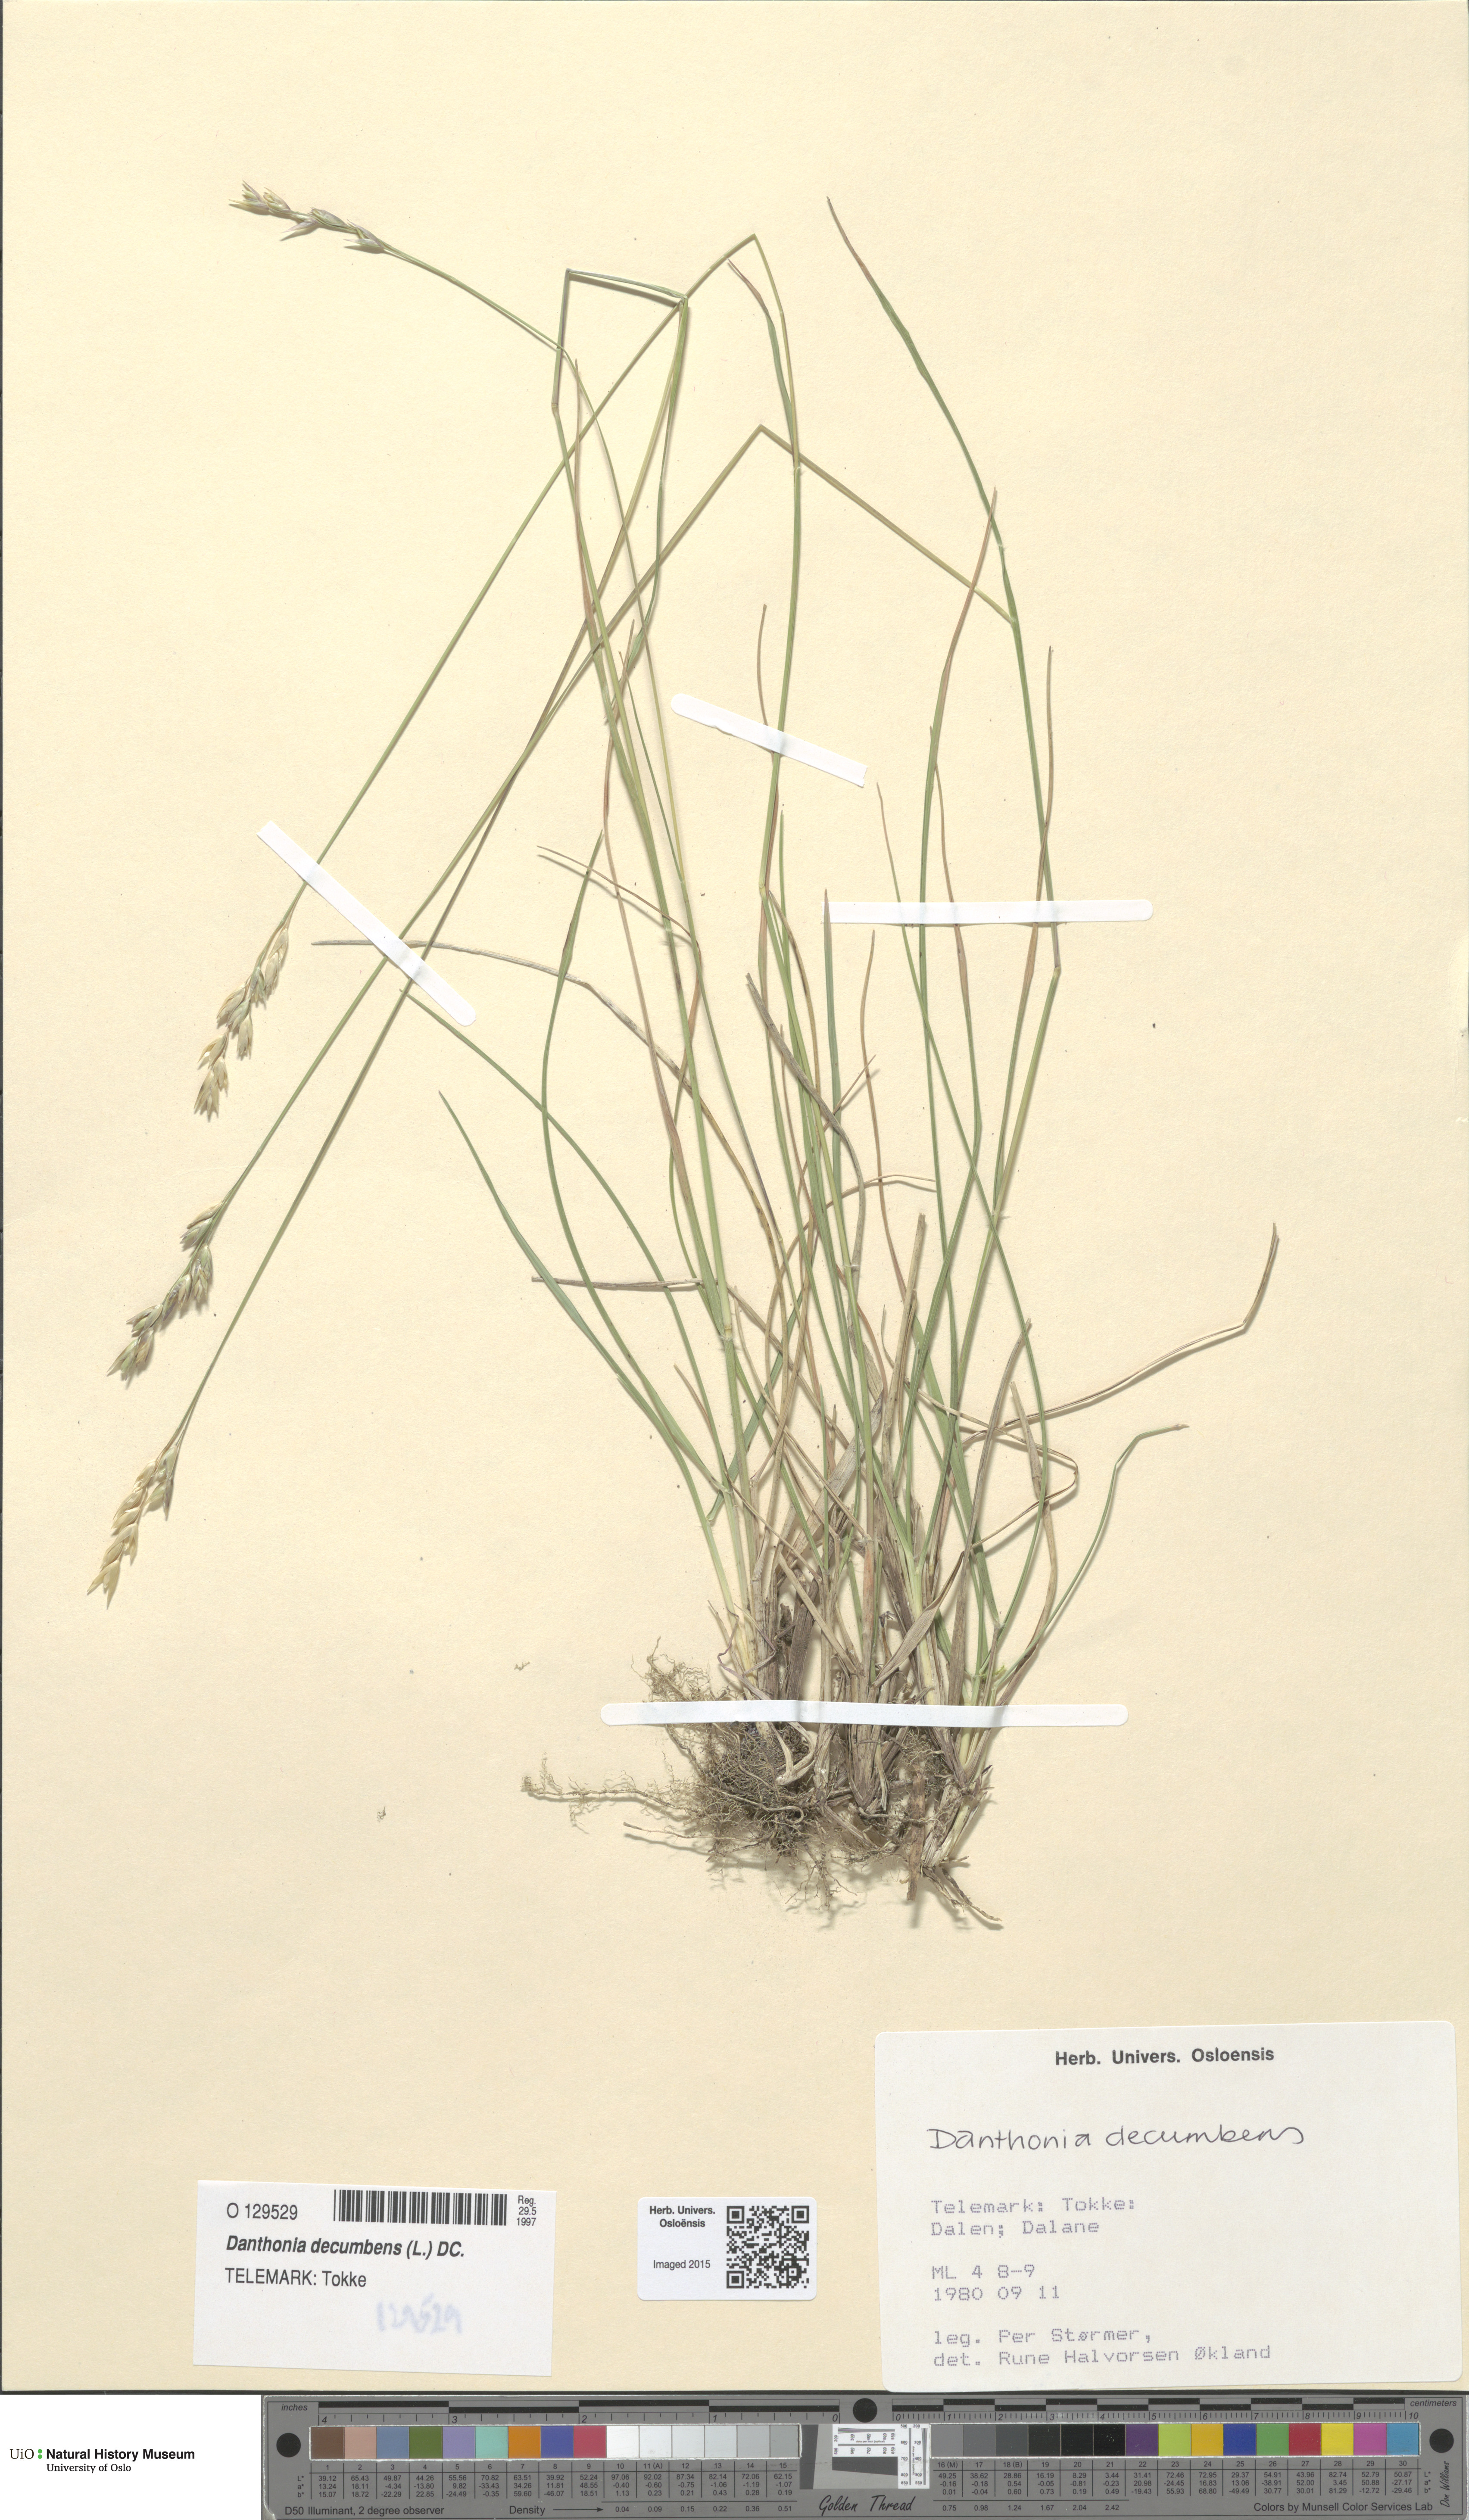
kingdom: Plantae
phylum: Tracheophyta
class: Liliopsida
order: Poales
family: Poaceae
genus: Danthonia
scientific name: Danthonia decumbens
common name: Common heathgrass
